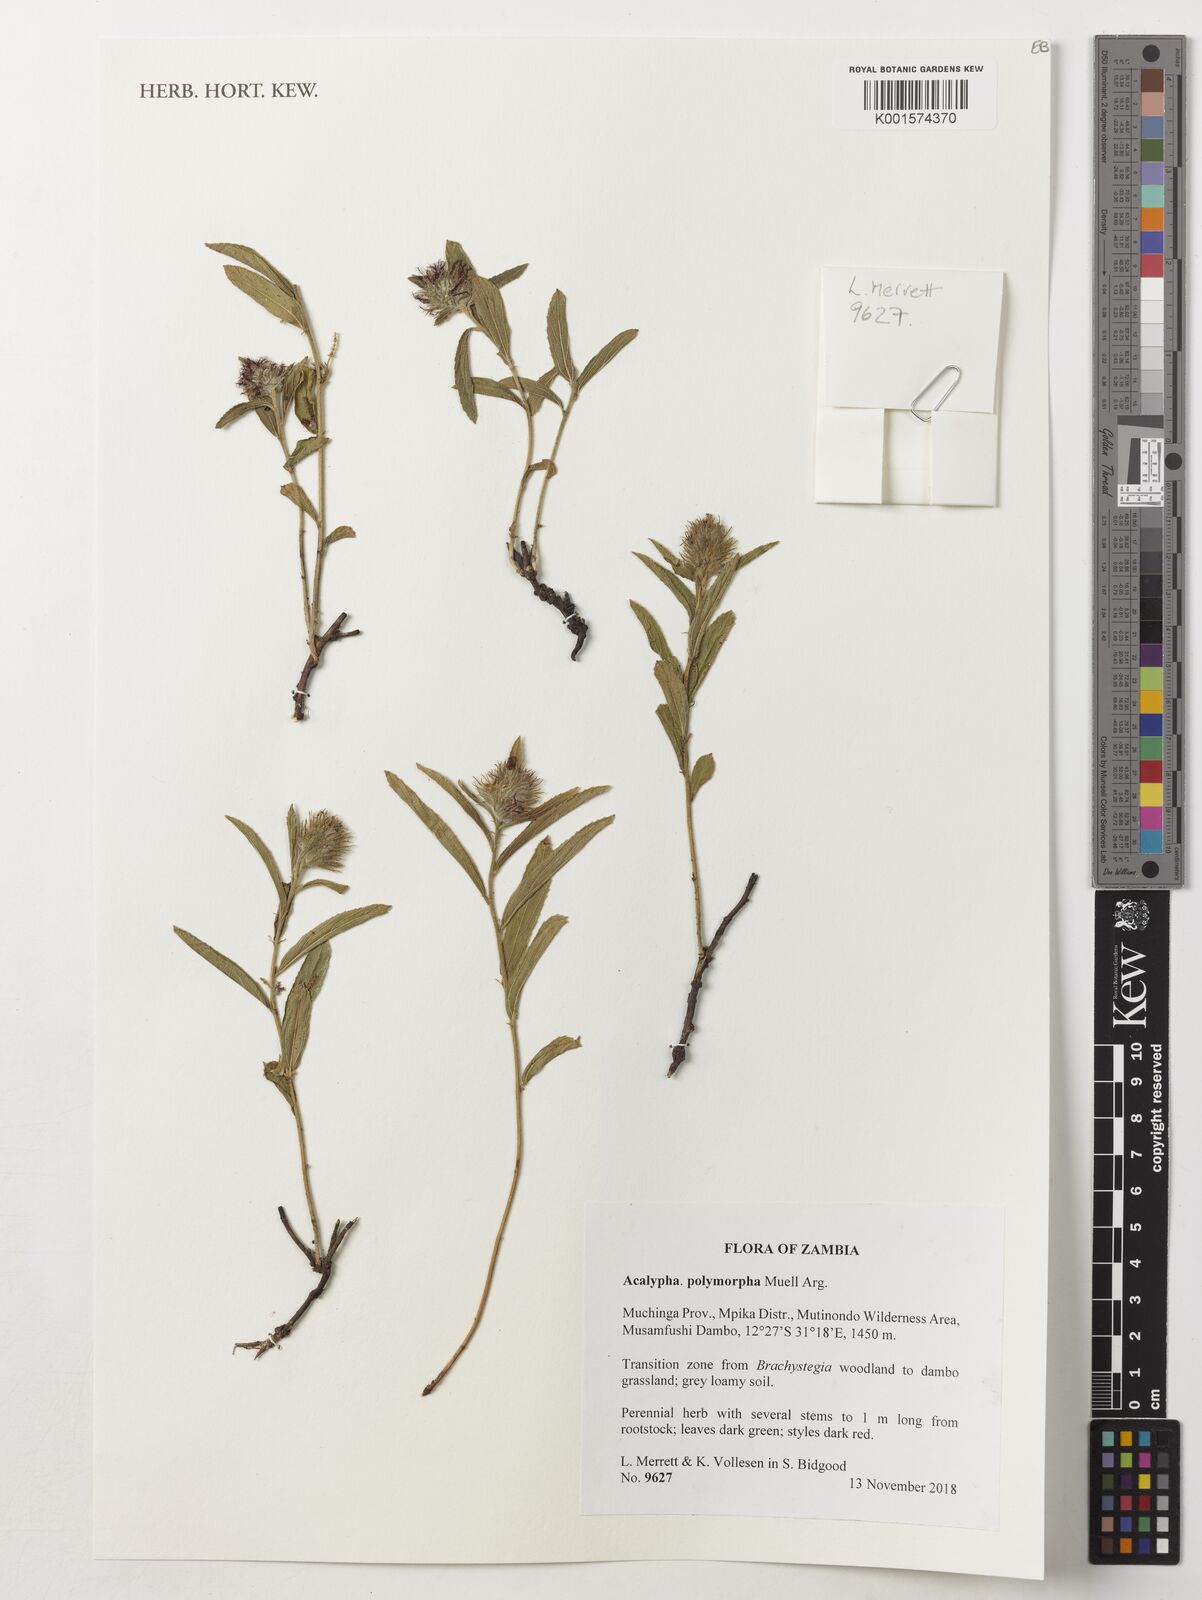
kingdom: Plantae
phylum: Tracheophyta
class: Magnoliopsida
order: Malpighiales
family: Euphorbiaceae
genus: Acalypha
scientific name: Acalypha polymorpha
